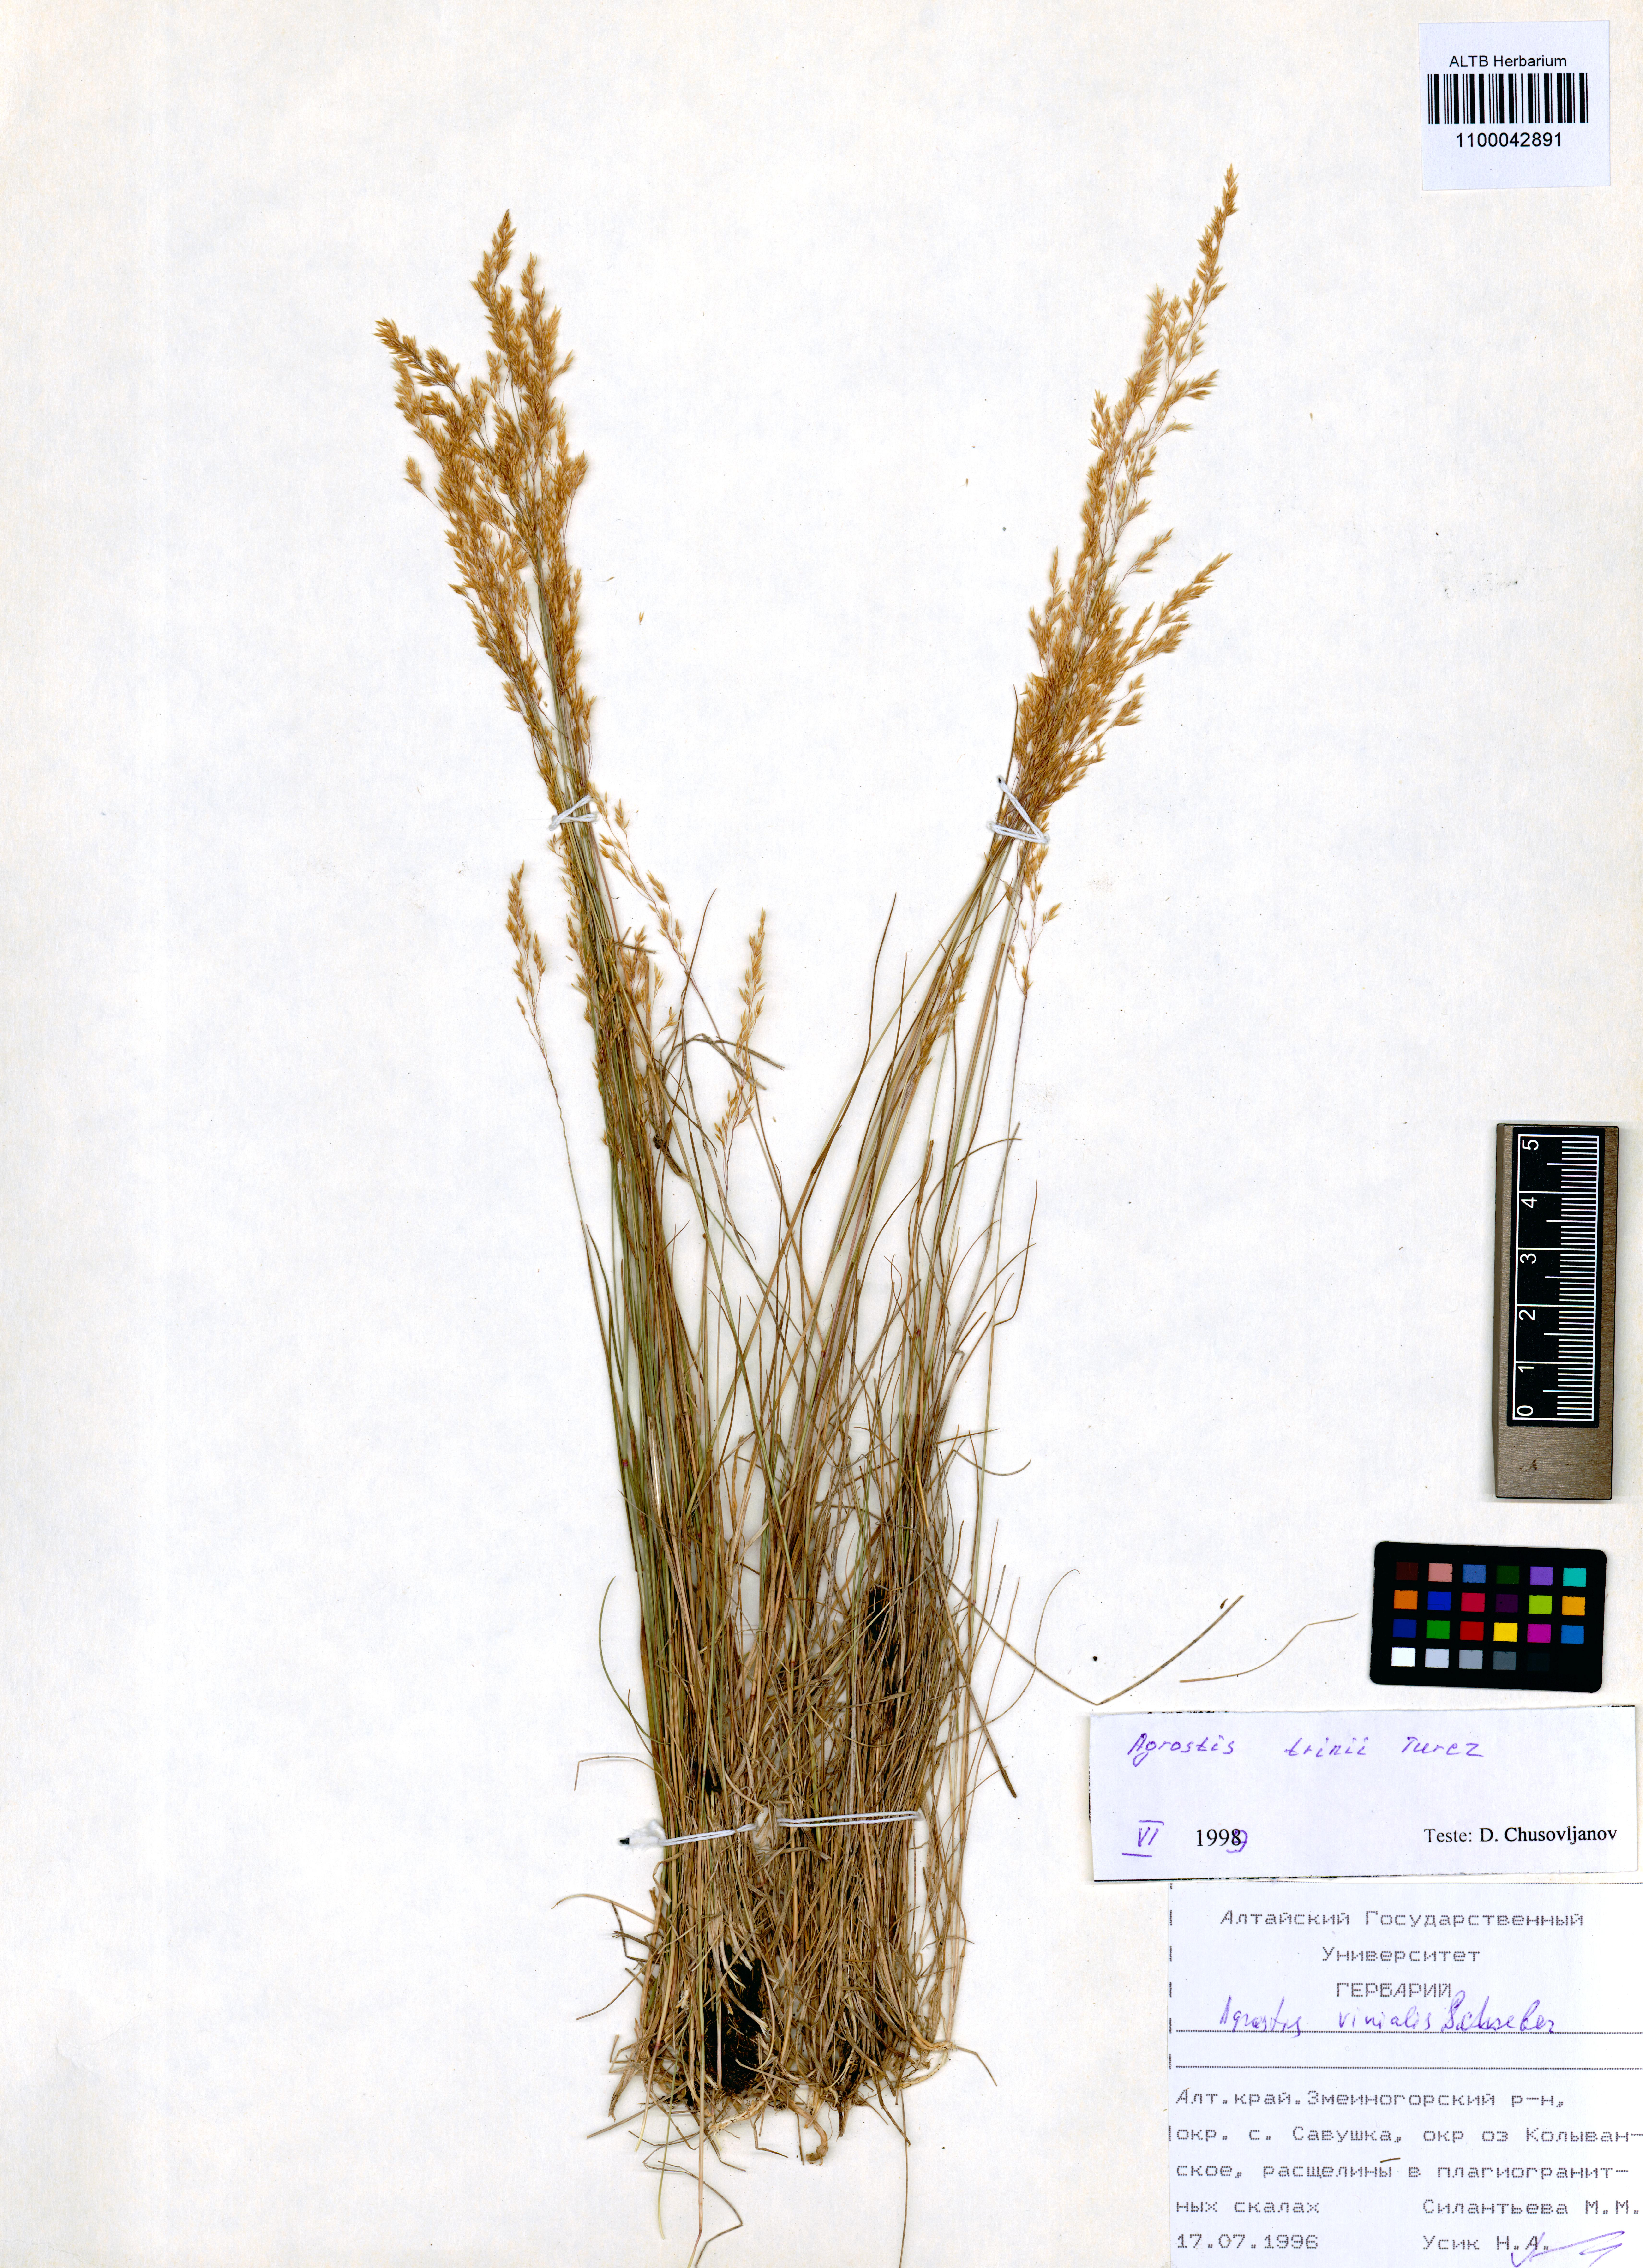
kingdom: Plantae
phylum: Tracheophyta
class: Liliopsida
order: Poales
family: Poaceae
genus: Agrostis
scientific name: Agrostis vinealis
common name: Brown bent
